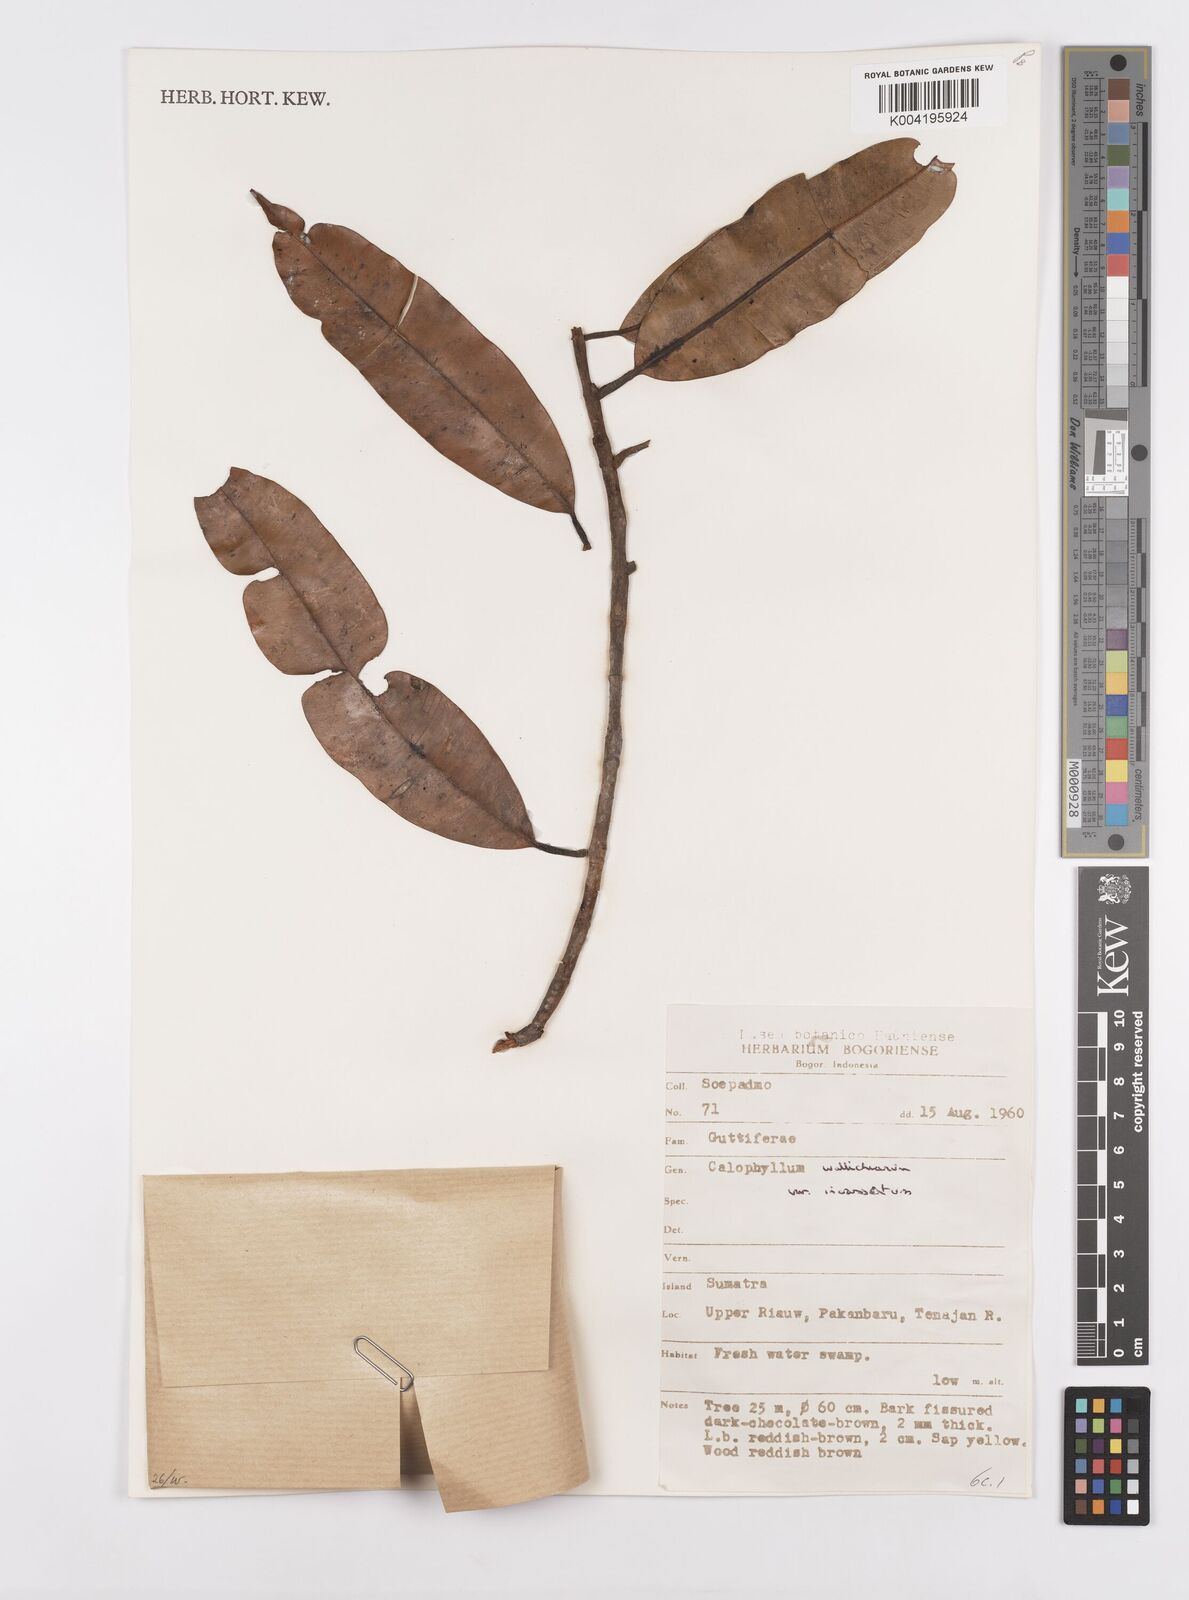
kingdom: Plantae
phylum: Tracheophyta
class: Magnoliopsida
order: Malpighiales
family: Calophyllaceae
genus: Calophyllum
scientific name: Calophyllum wallichiana
